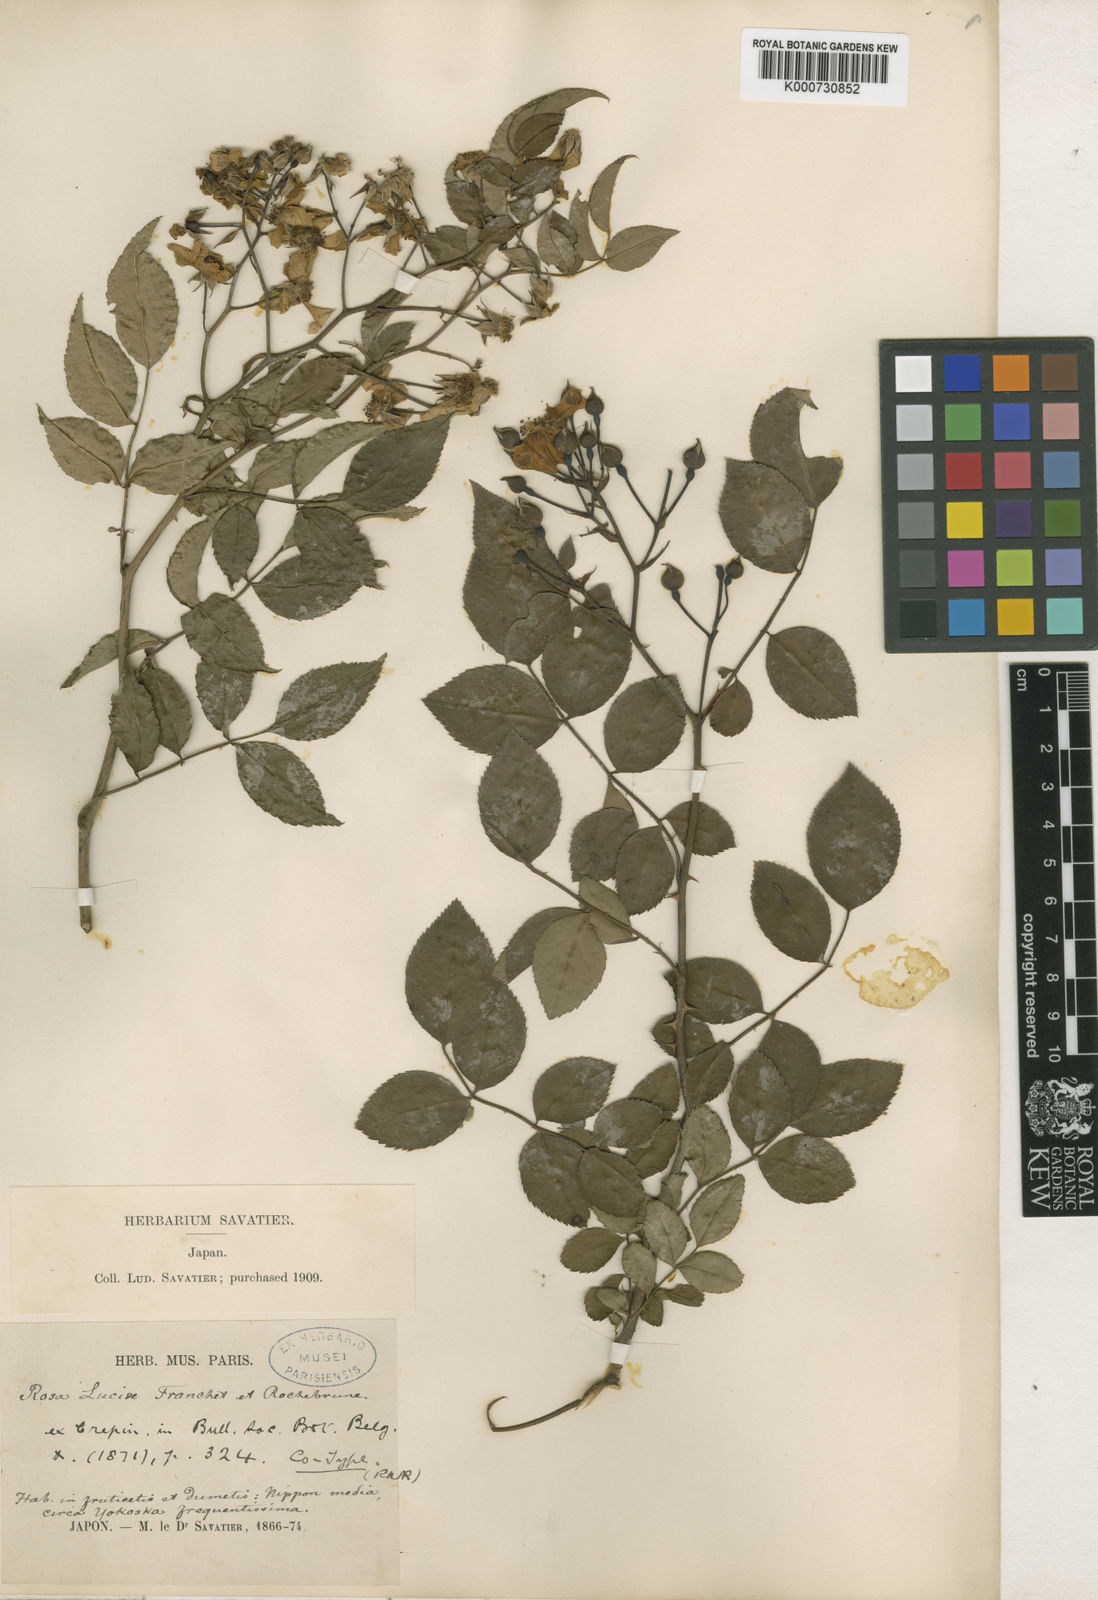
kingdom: Plantae
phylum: Tracheophyta
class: Magnoliopsida
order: Rosales
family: Rosaceae
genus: Rosa
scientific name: Rosa
